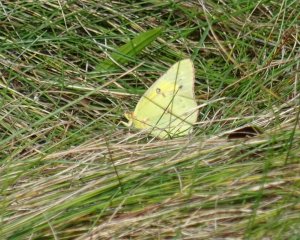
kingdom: Animalia
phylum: Arthropoda
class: Insecta
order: Lepidoptera
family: Pieridae
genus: Colias
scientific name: Colias eurytheme
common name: Orange Sulphur
